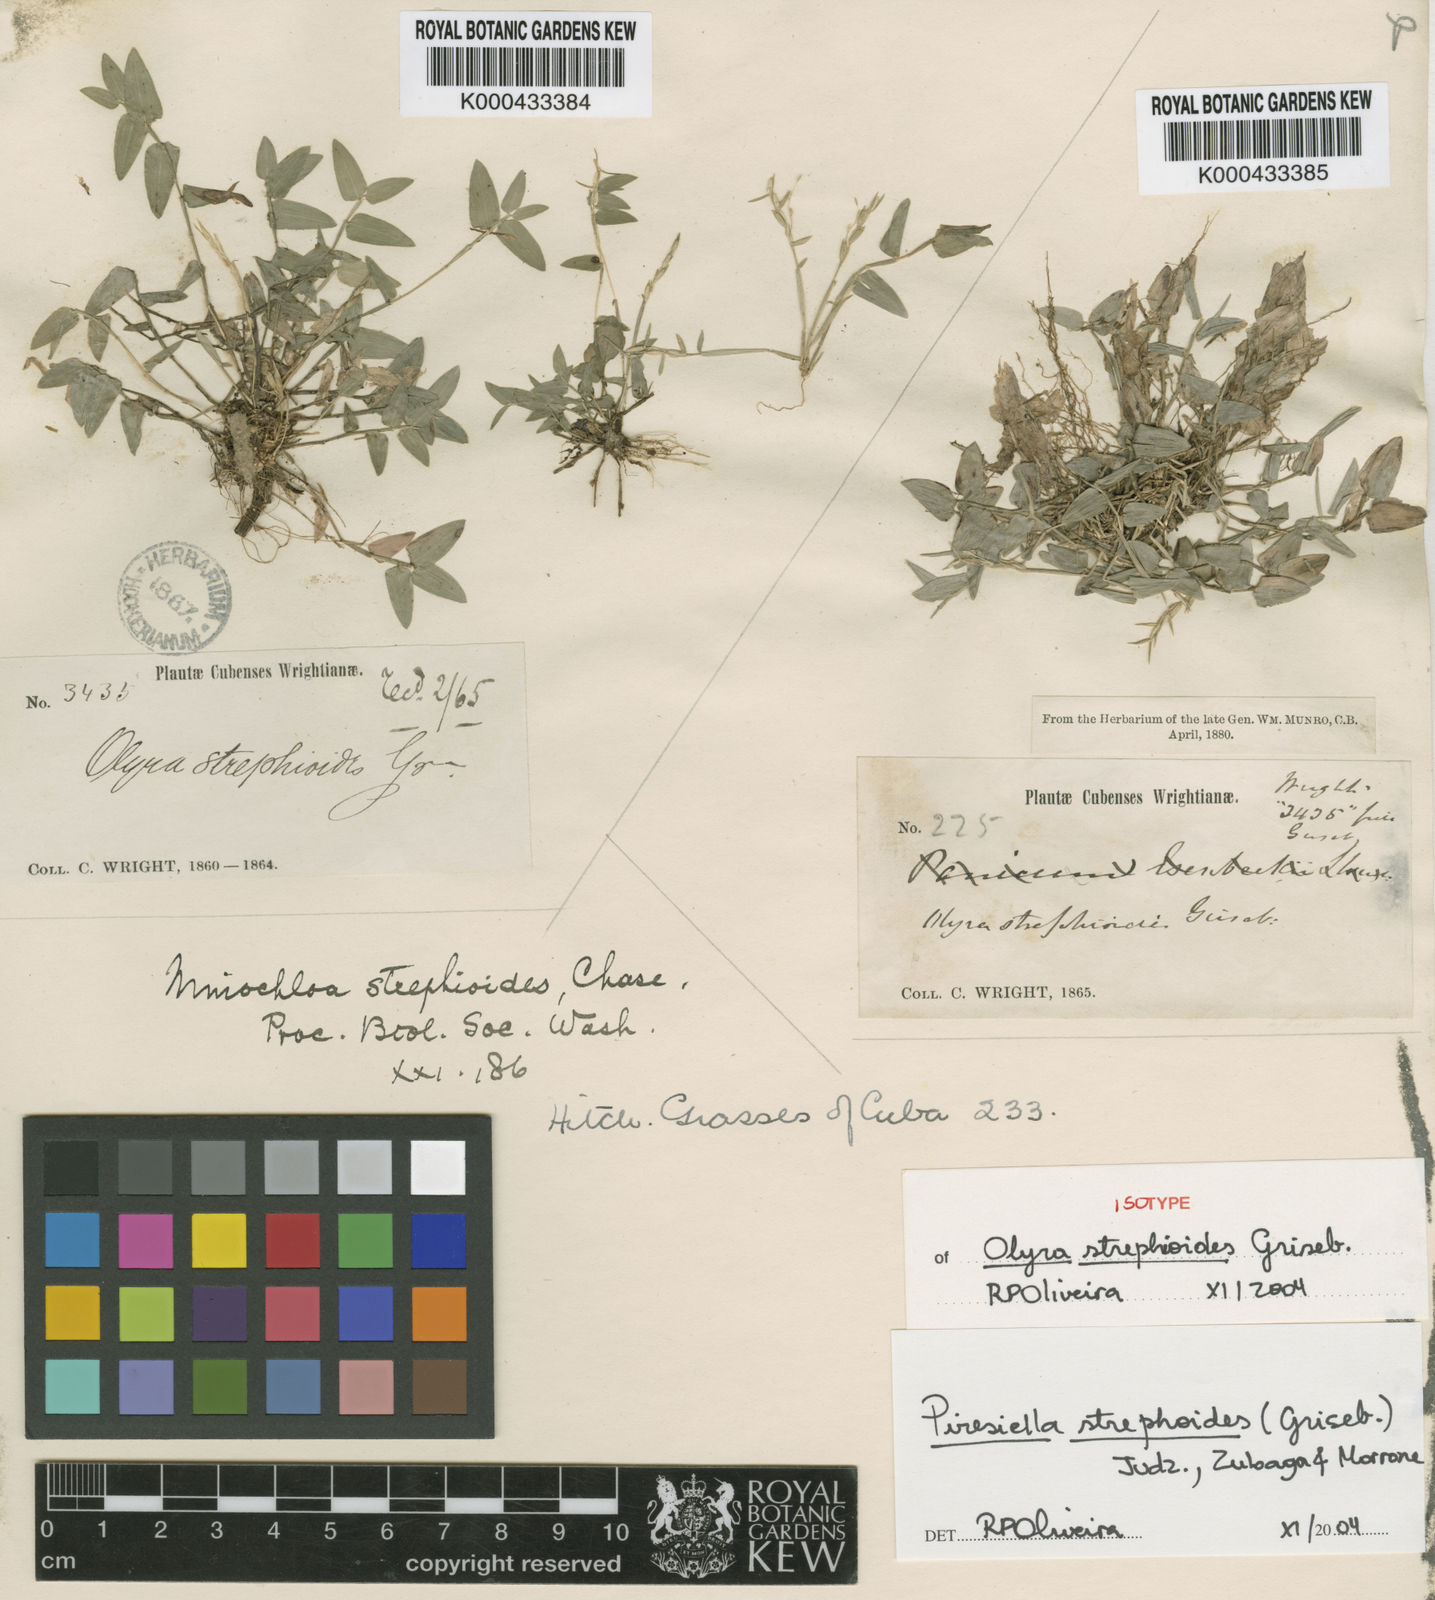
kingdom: Plantae
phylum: Tracheophyta
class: Liliopsida
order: Poales
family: Poaceae
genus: Piresiella
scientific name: Piresiella strephioides
